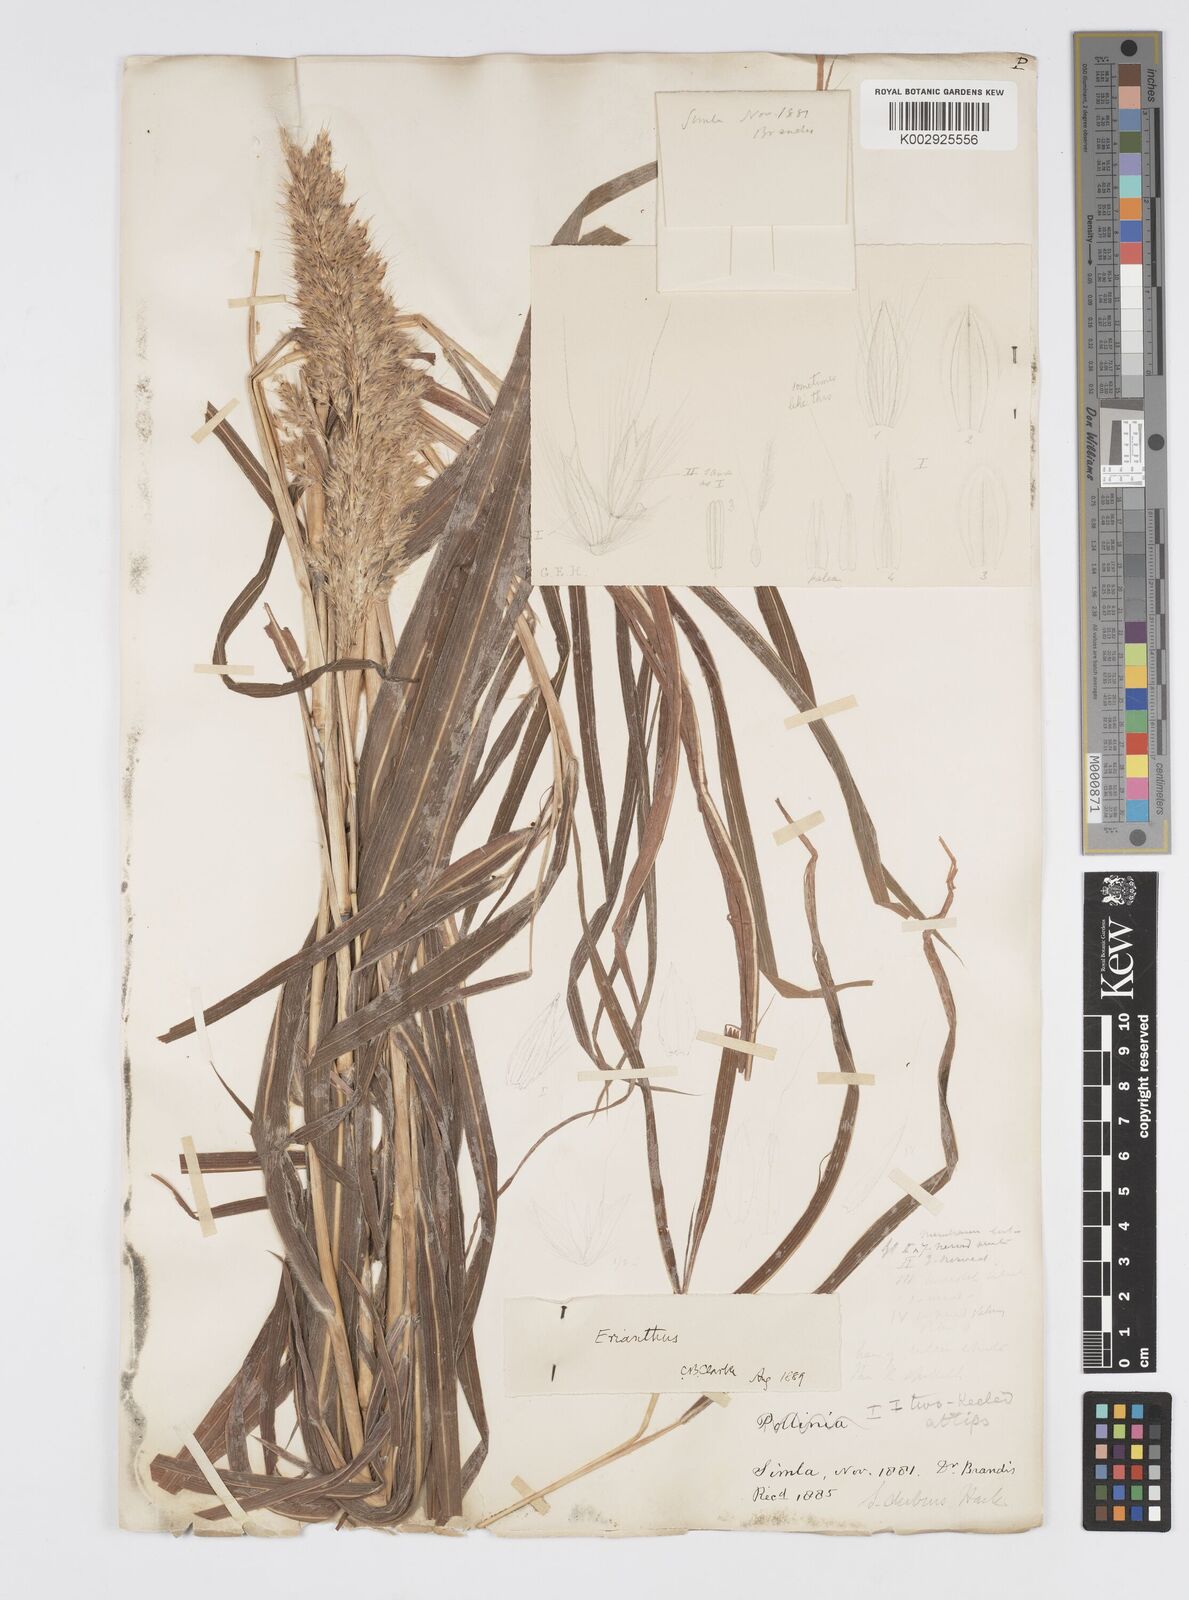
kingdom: Plantae
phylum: Tracheophyta
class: Liliopsida
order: Poales
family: Poaceae
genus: Spodiopogon
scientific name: Spodiopogon dubius
